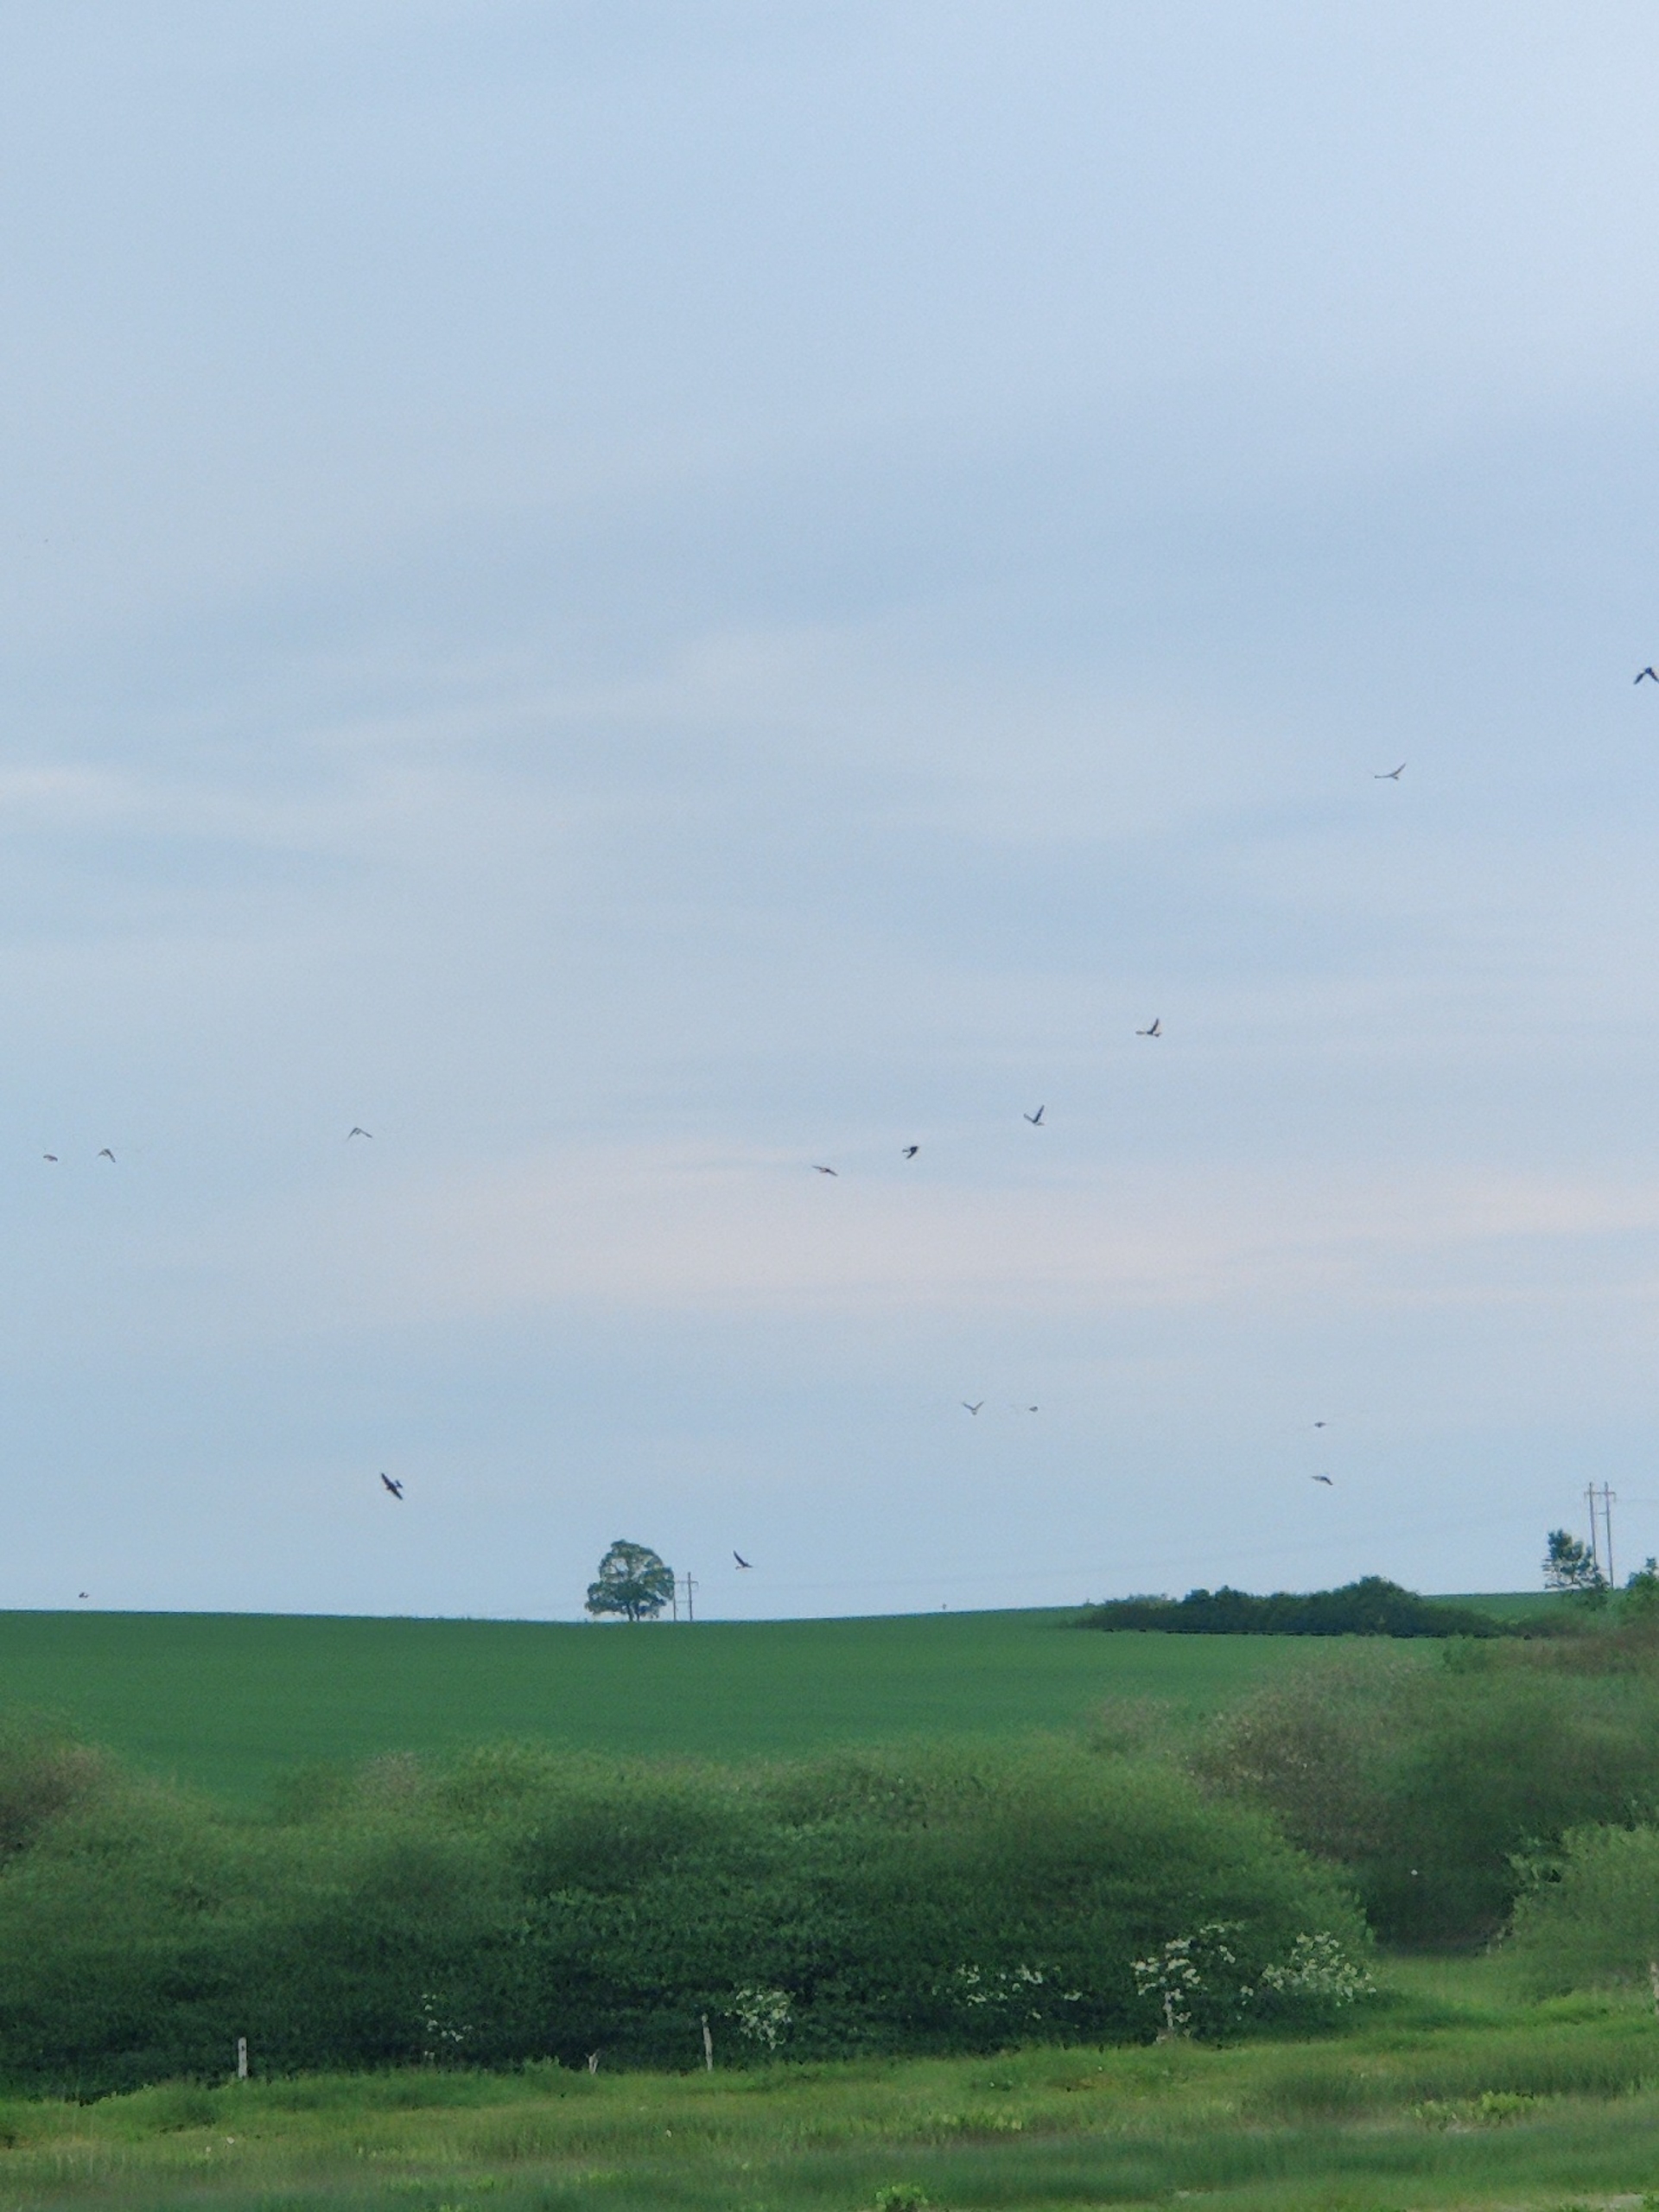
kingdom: Animalia
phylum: Chordata
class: Aves
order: Passeriformes
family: Hirundinidae
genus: Delichon
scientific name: Delichon urbicum
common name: Bysvale
